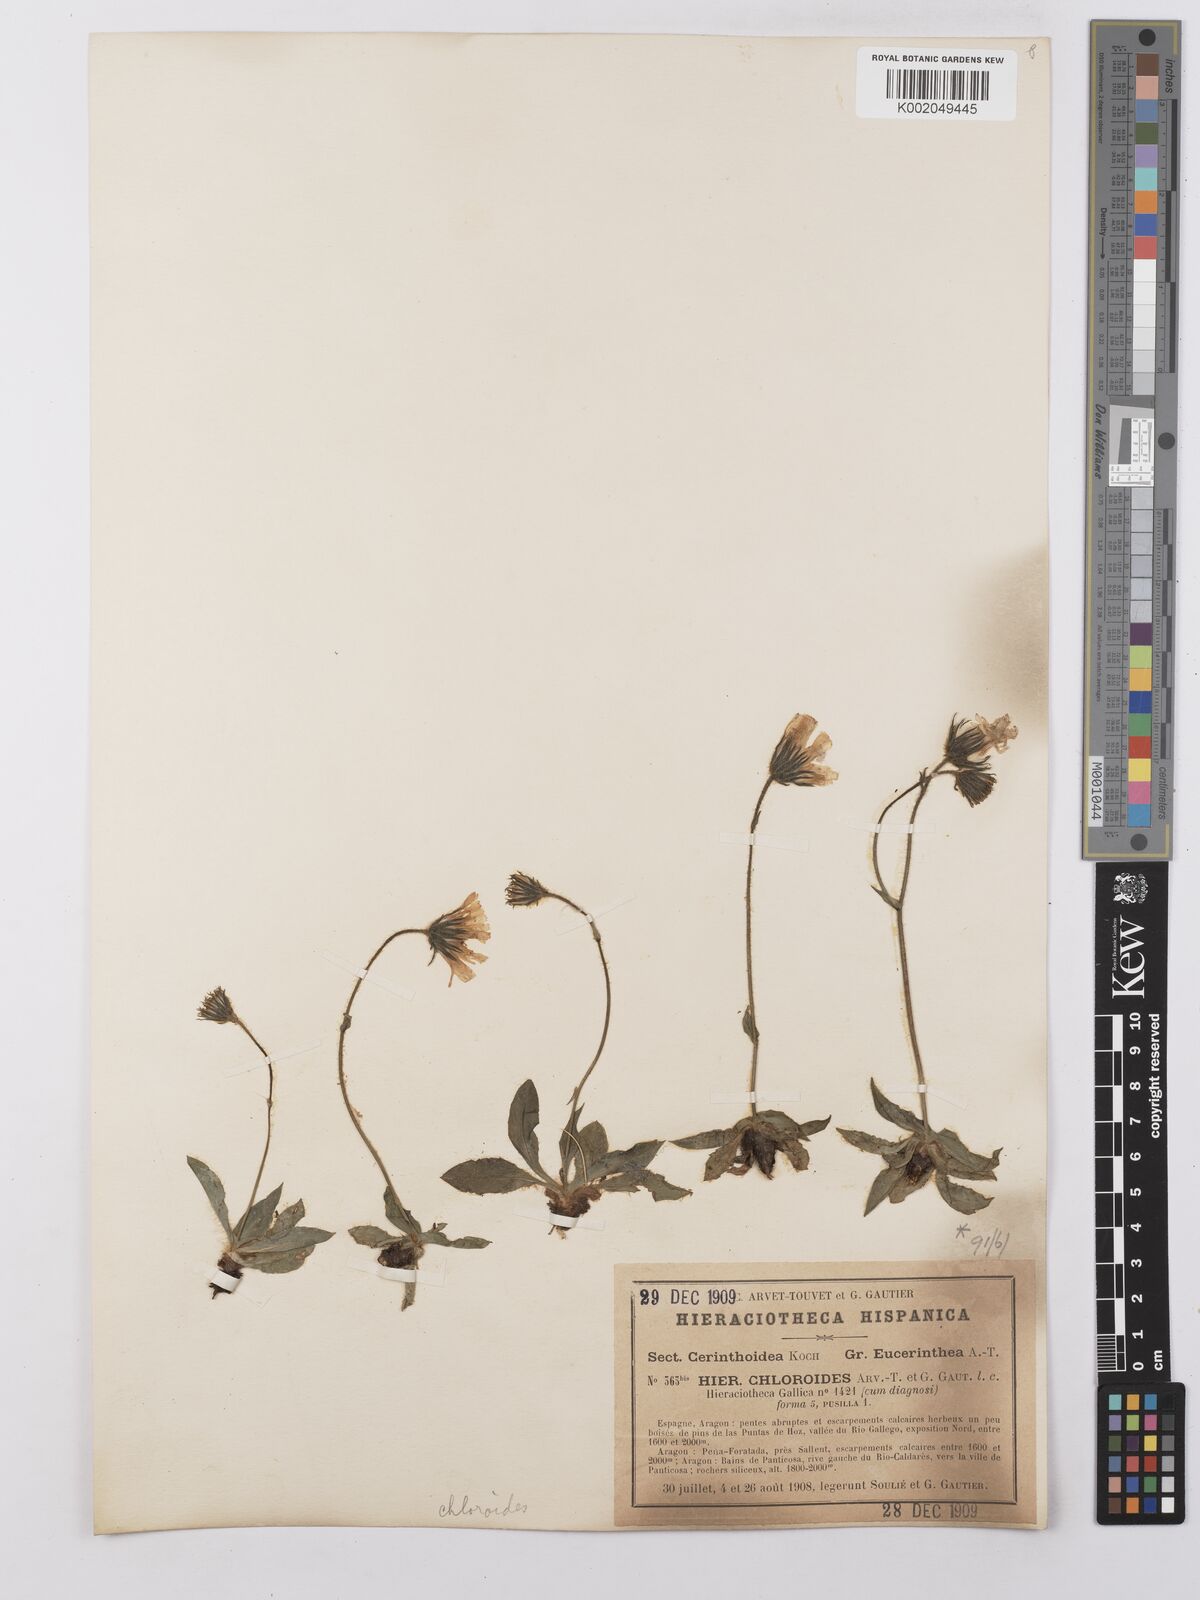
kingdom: Plantae
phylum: Tracheophyta
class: Magnoliopsida
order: Asterales
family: Asteraceae
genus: Hieracium
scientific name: Hieracium ramondii
